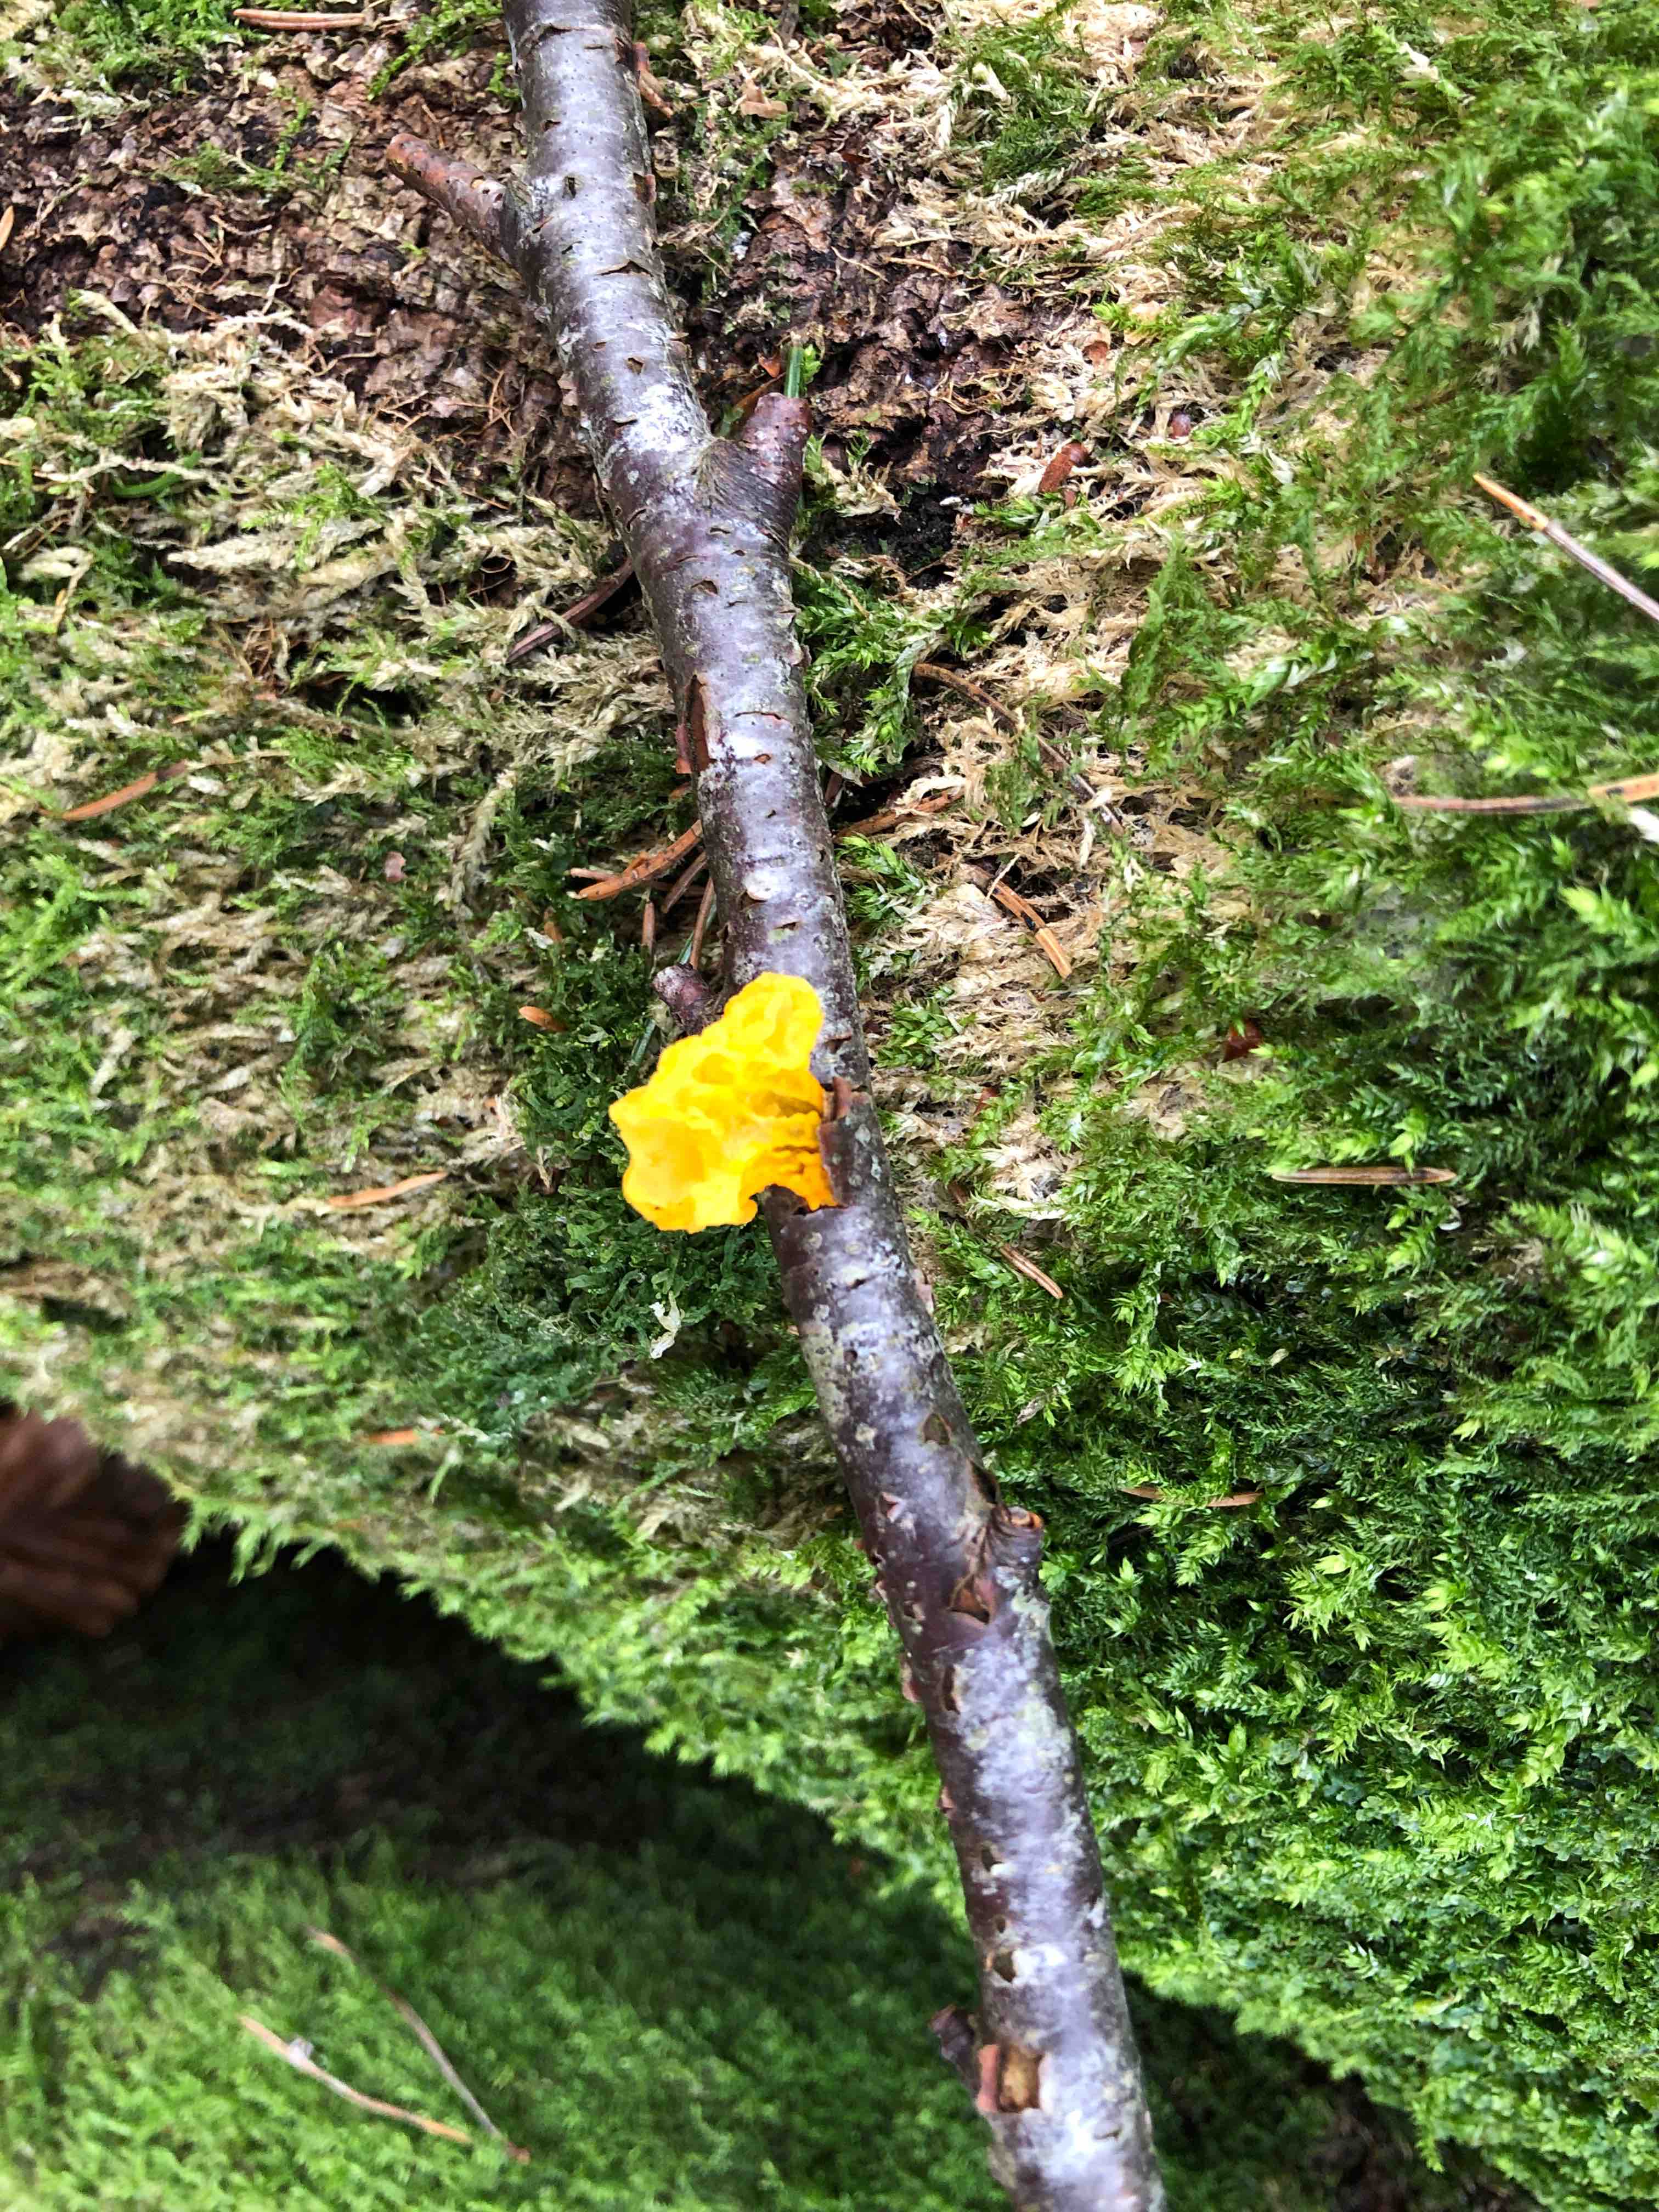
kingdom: Fungi
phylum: Basidiomycota
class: Tremellomycetes
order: Tremellales
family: Tremellaceae
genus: Tremella
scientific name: Tremella mesenterica
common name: gul bævresvamp
